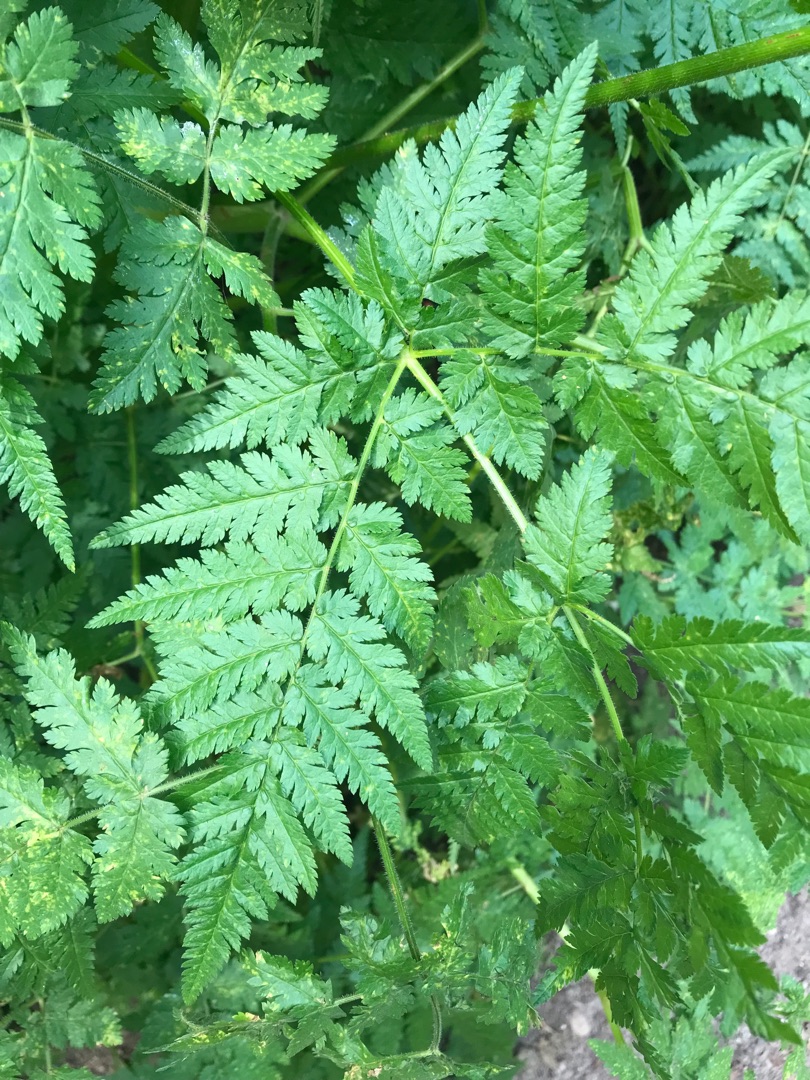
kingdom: Plantae
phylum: Tracheophyta
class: Magnoliopsida
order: Apiales
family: Apiaceae
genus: Myrrhis
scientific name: Myrrhis odorata
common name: Sødskærm
